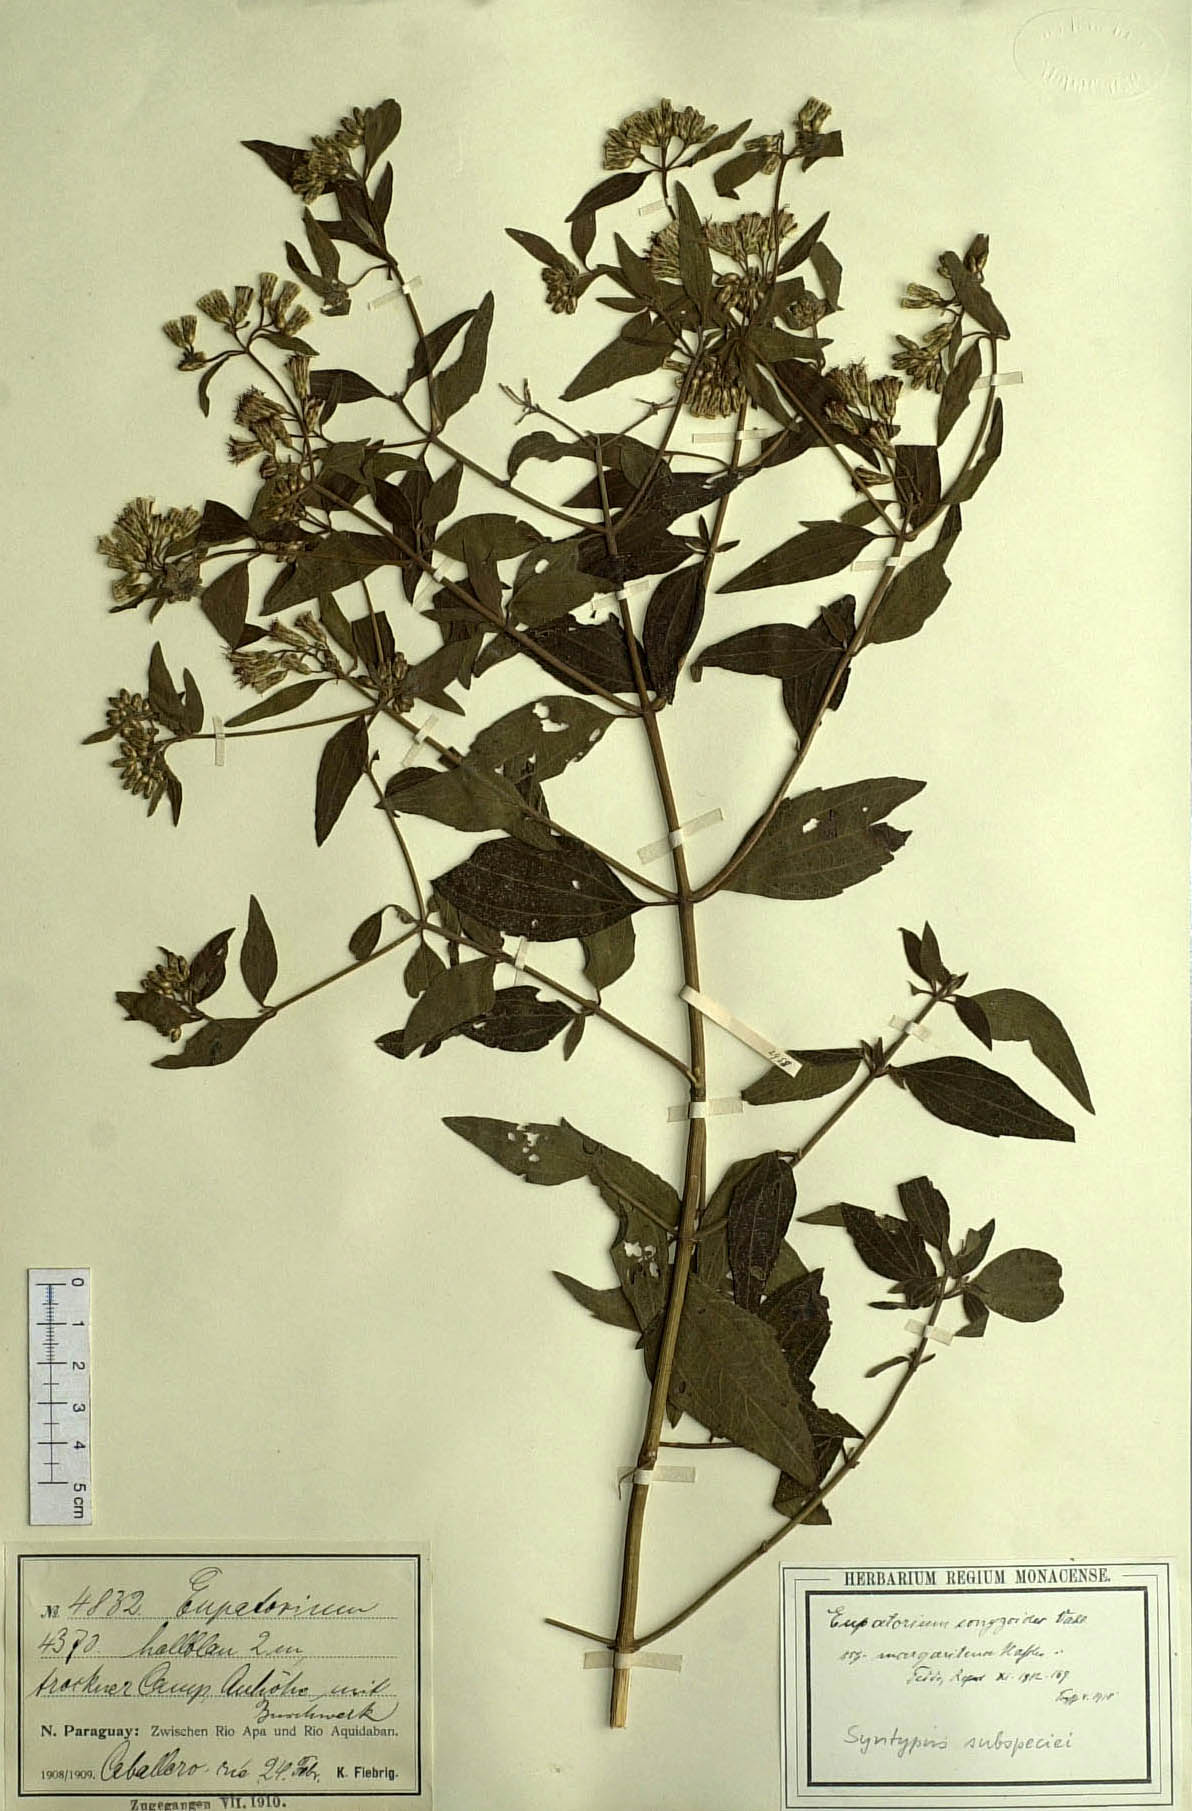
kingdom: Plantae
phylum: Tracheophyta
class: Magnoliopsida
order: Asterales
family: Asteraceae
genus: Chromolaena
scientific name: Chromolaena margaritensis
